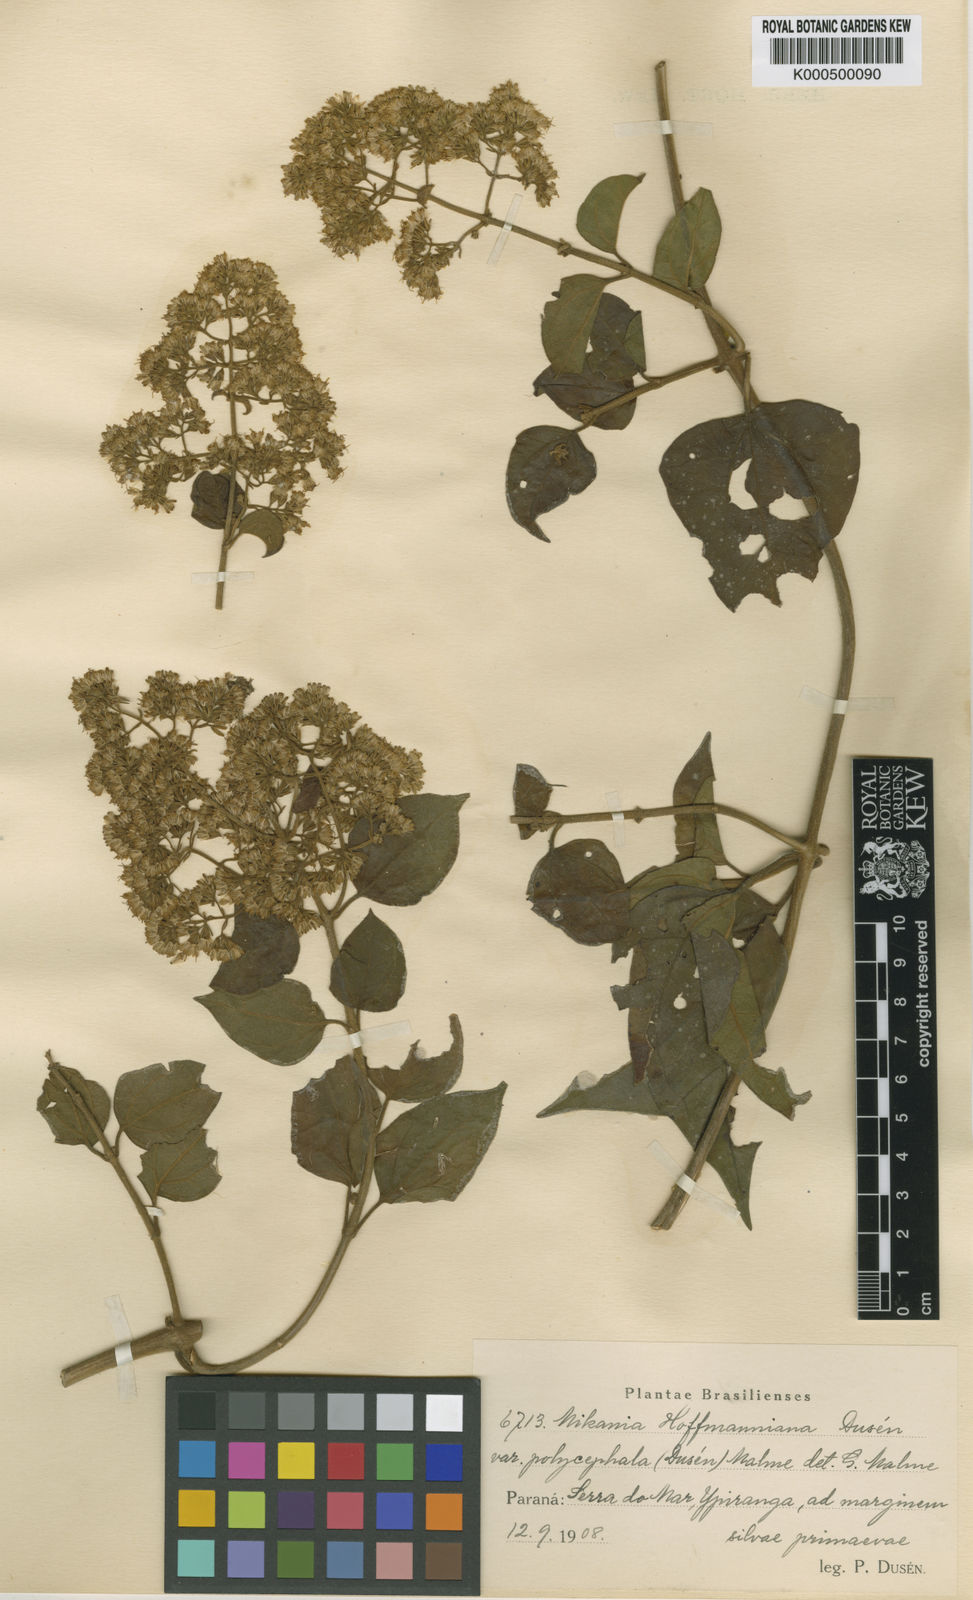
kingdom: Plantae
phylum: Tracheophyta
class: Magnoliopsida
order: Asterales
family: Asteraceae
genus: Mikania
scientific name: Mikania
